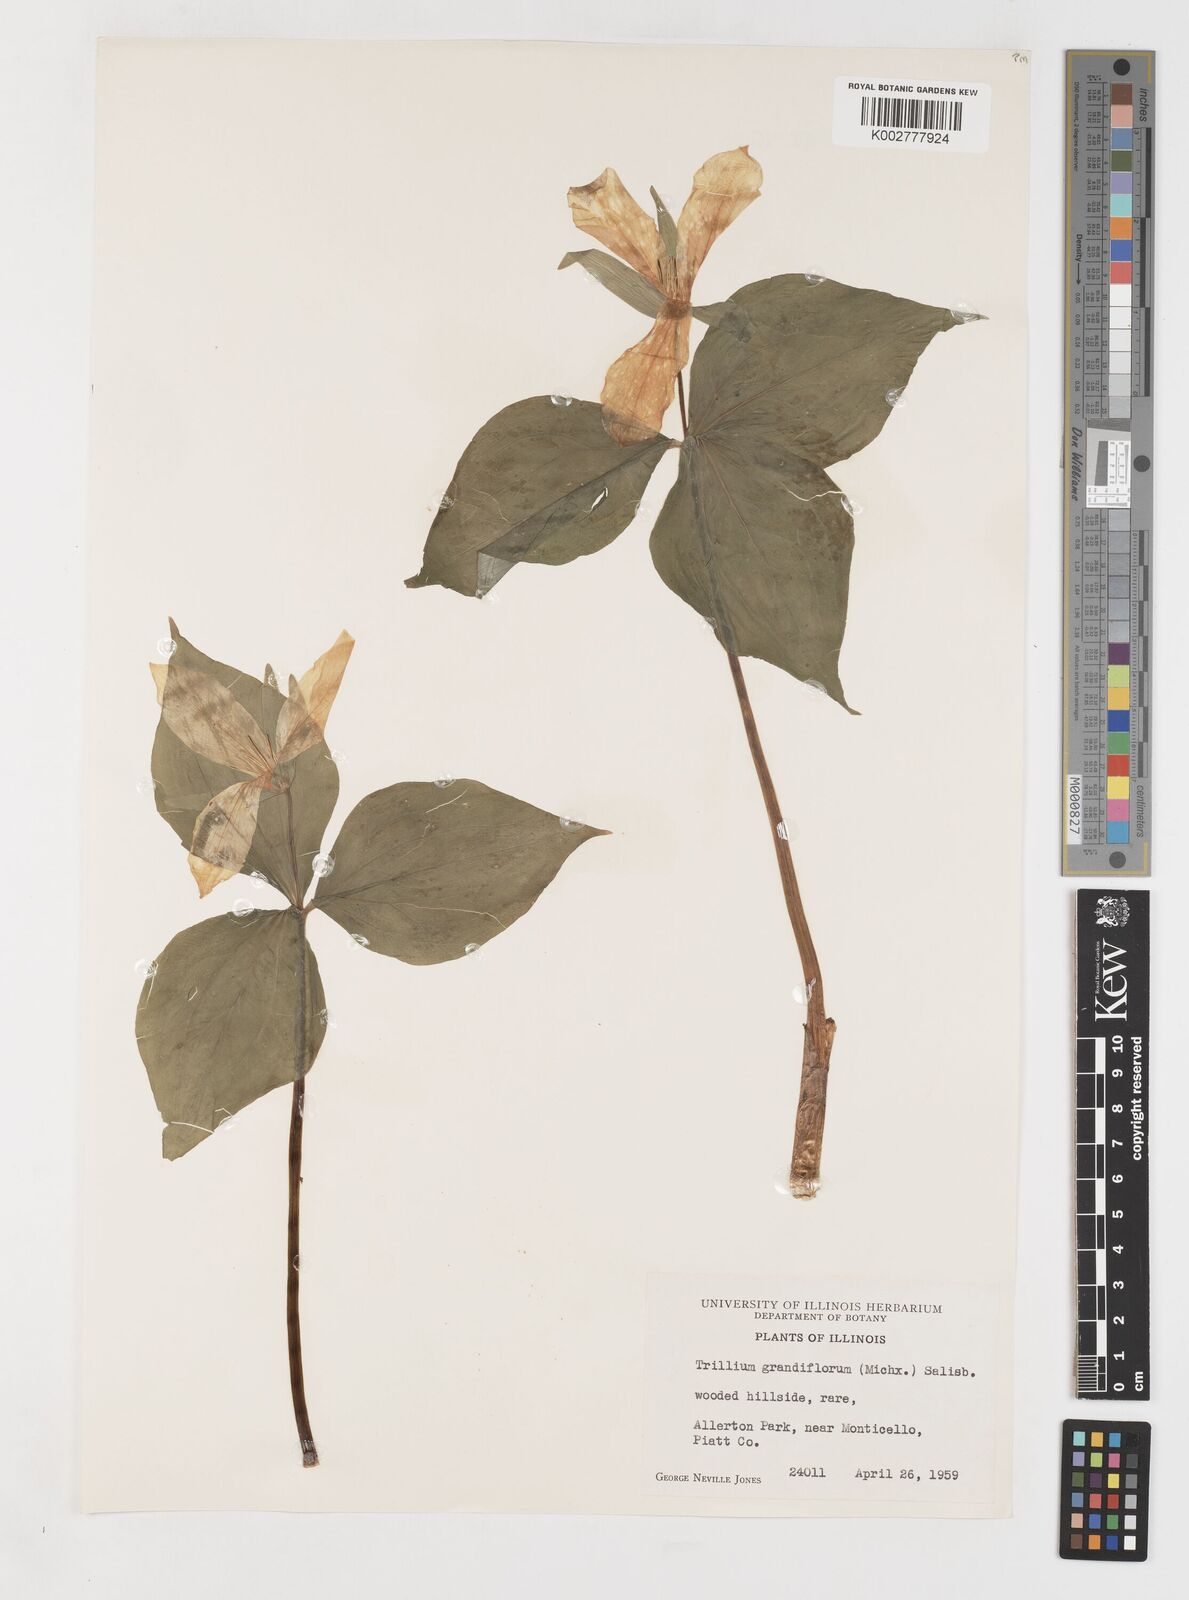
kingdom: Plantae
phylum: Tracheophyta
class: Liliopsida
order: Liliales
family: Melanthiaceae
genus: Trillium
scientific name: Trillium grandiflorum
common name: Great white trillium
